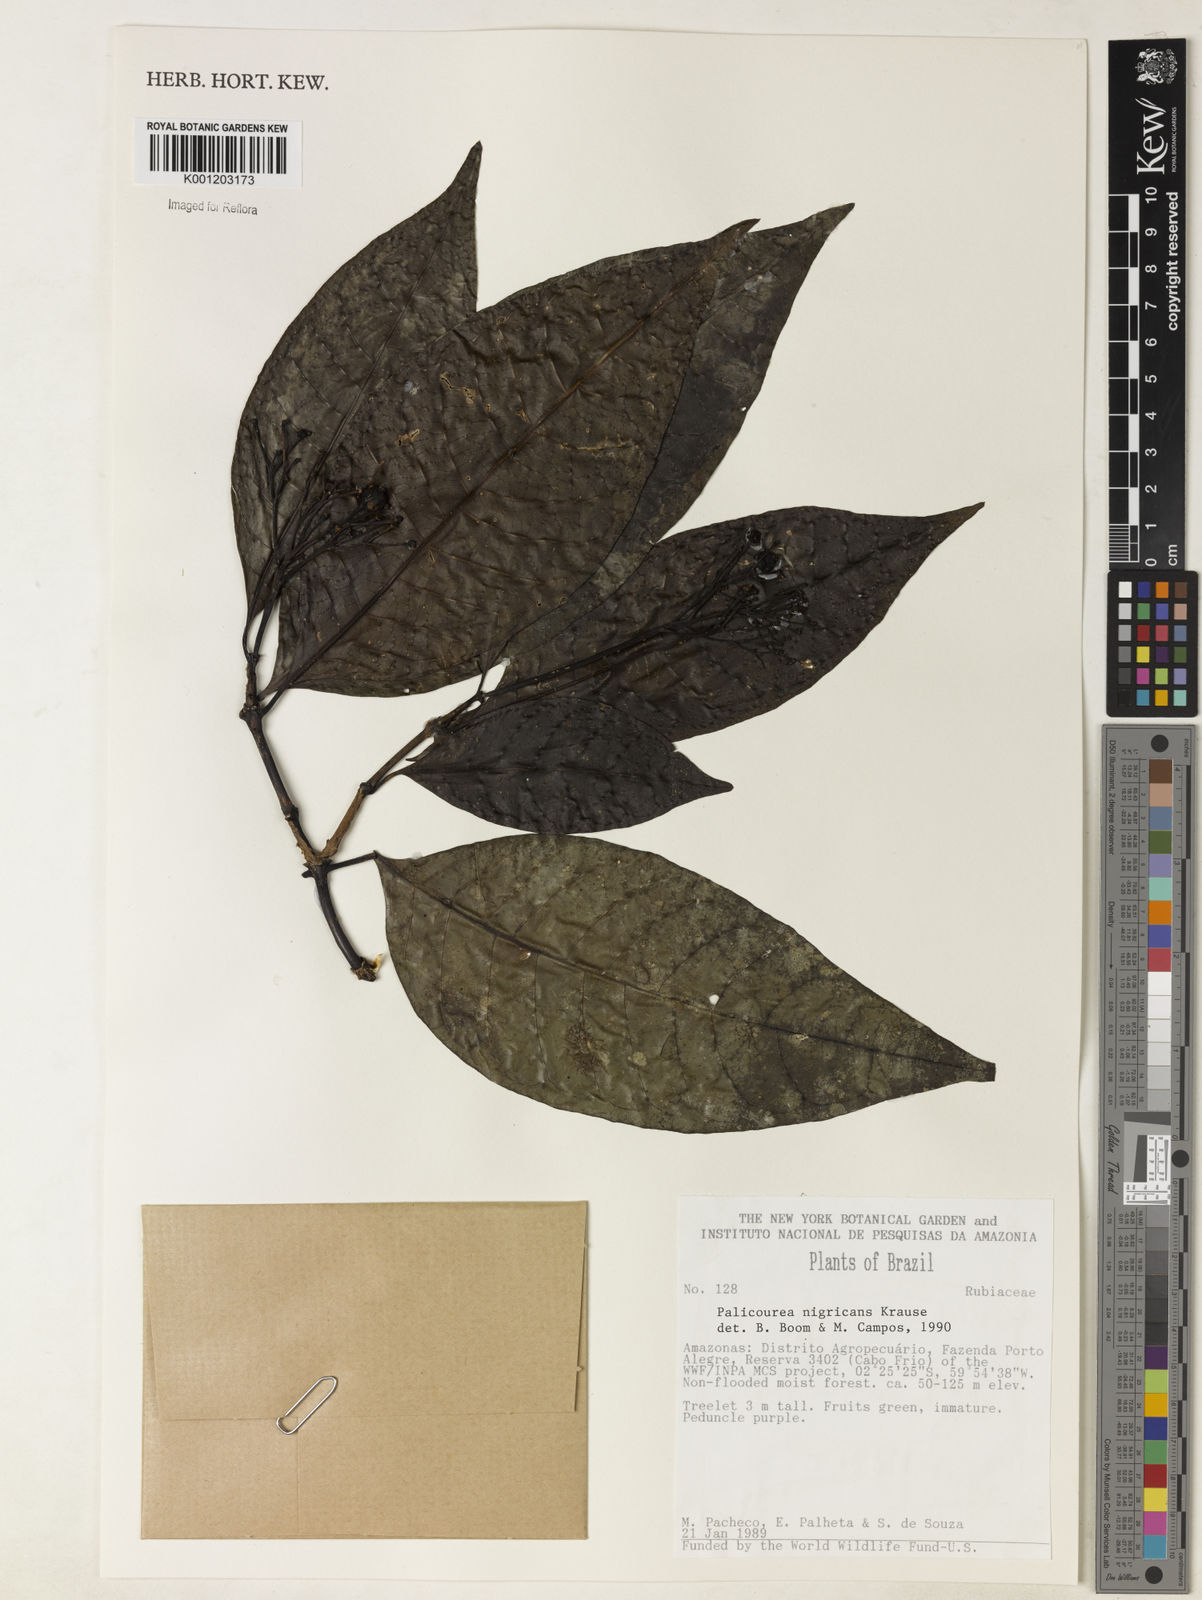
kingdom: Plantae
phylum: Tracheophyta
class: Magnoliopsida
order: Gentianales
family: Rubiaceae
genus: Palicourea
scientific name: Palicourea nigricans
